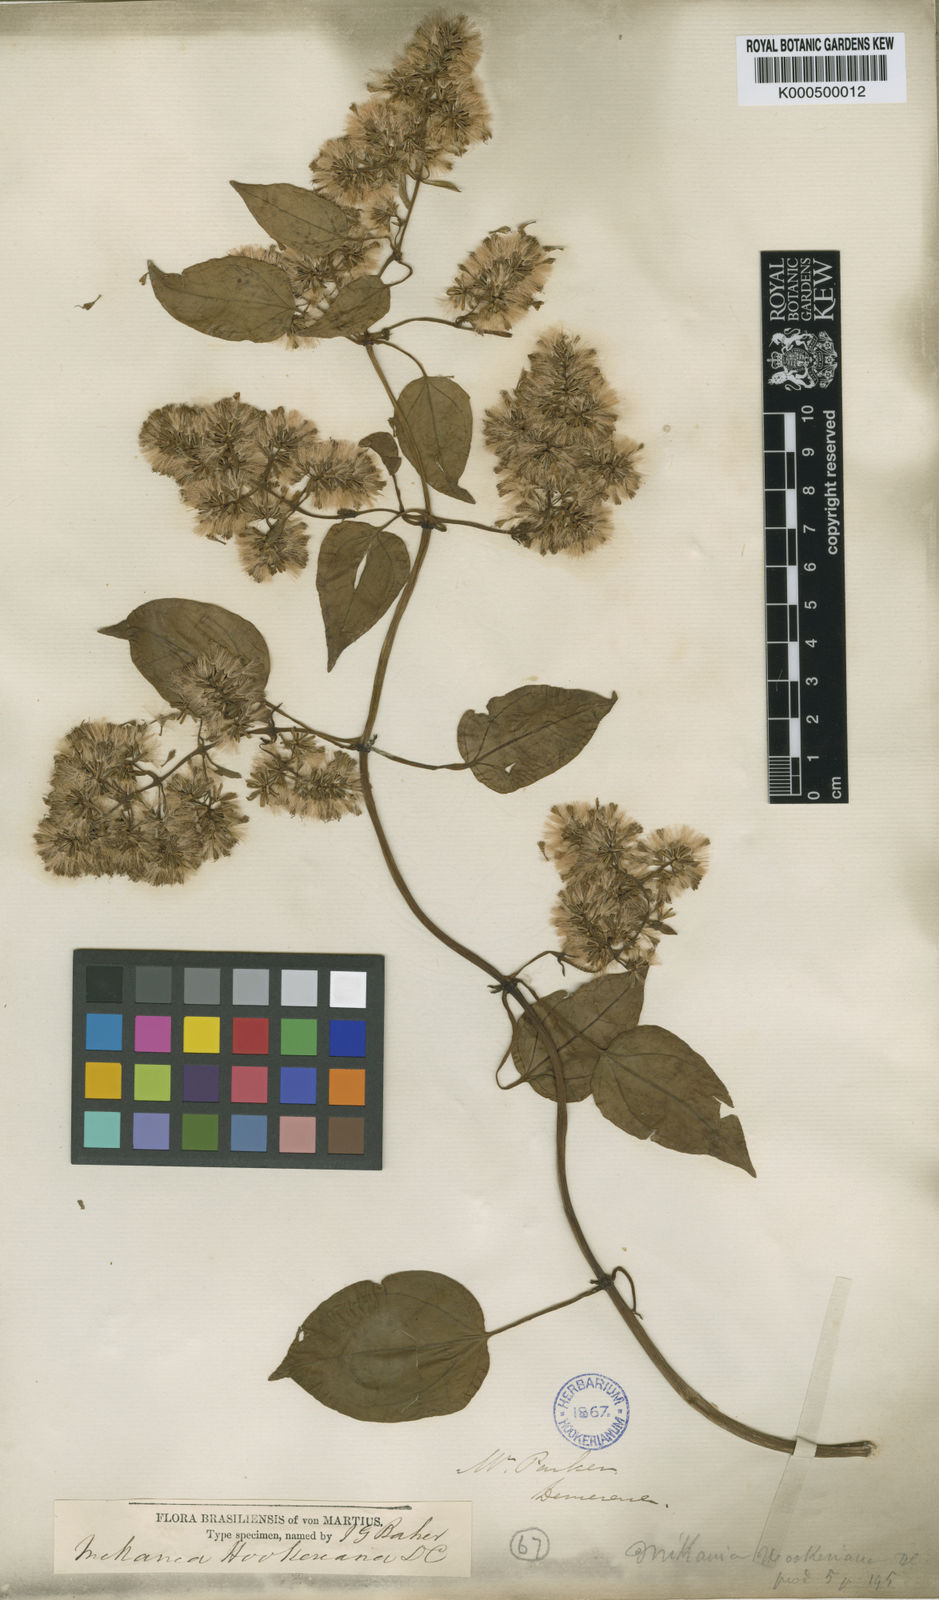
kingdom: Plantae
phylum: Tracheophyta
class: Magnoliopsida
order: Asterales
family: Asteraceae
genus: Mikania
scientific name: Mikania hookeriana
